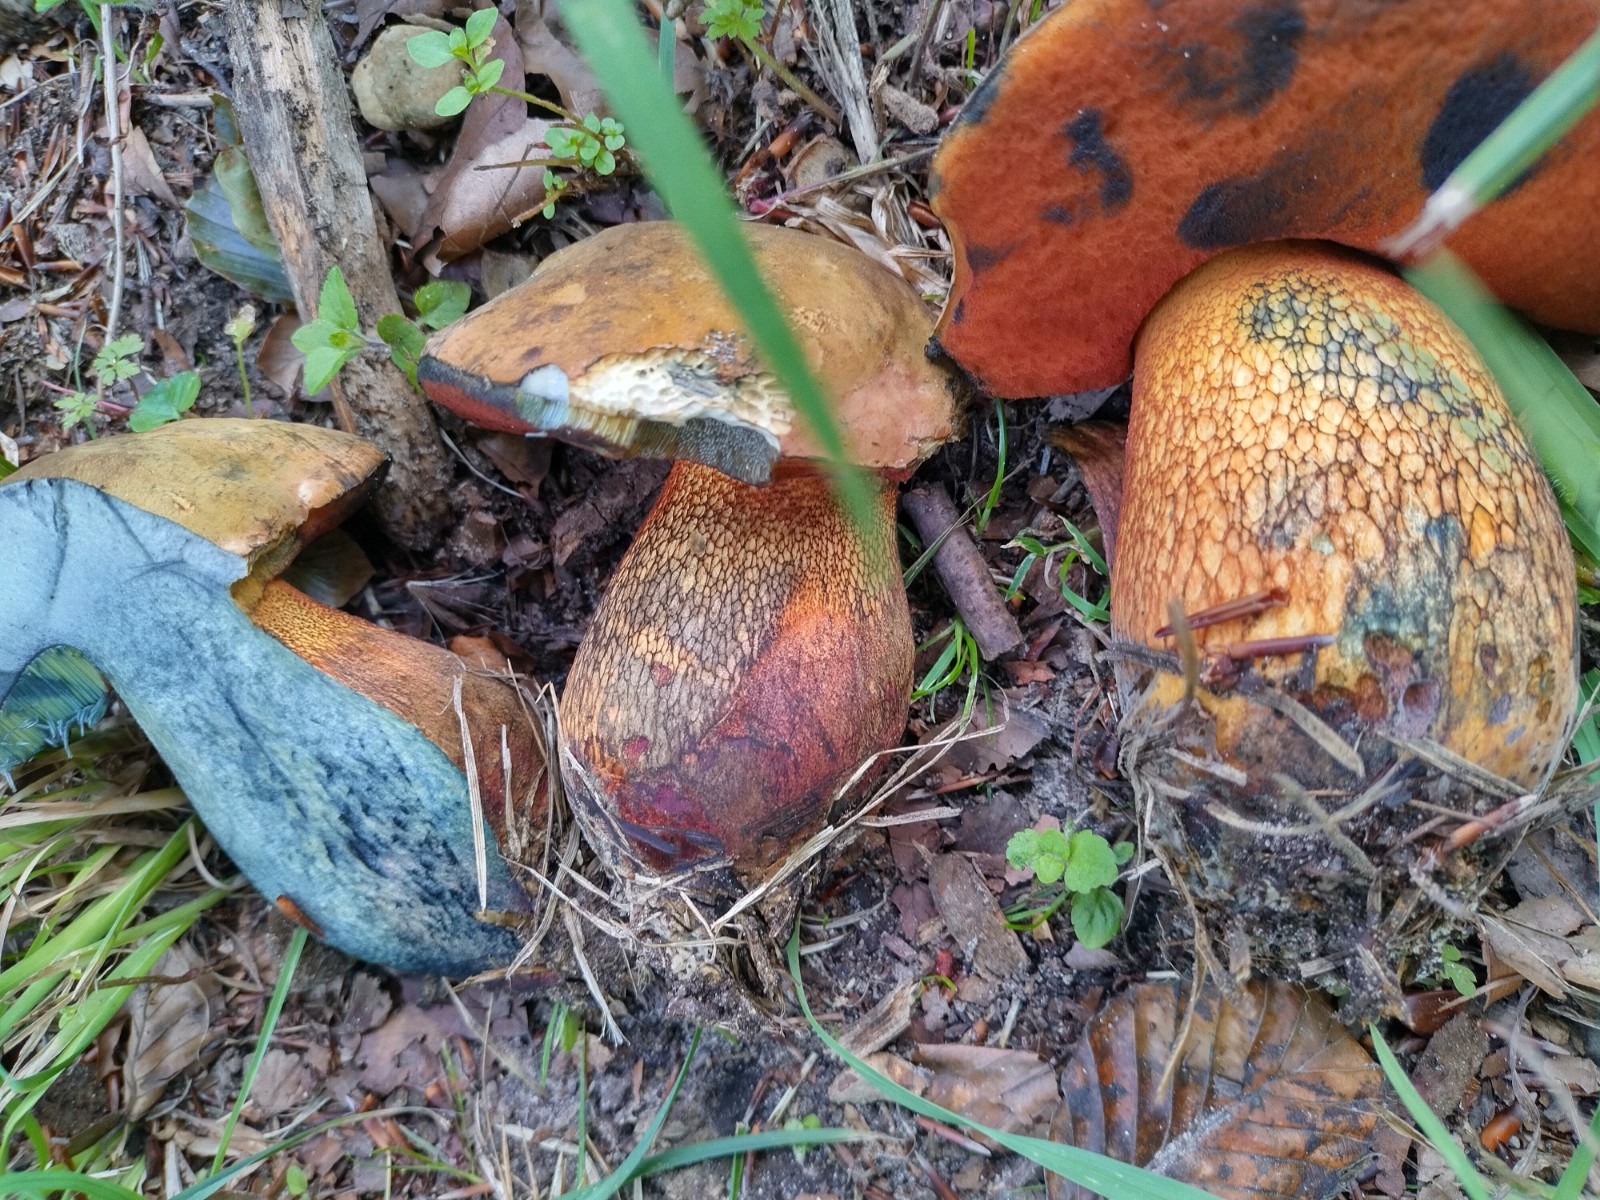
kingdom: Fungi
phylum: Basidiomycota
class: Agaricomycetes
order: Boletales
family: Boletaceae
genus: Suillellus
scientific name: Suillellus luridus
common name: netstokket indigorørhat
